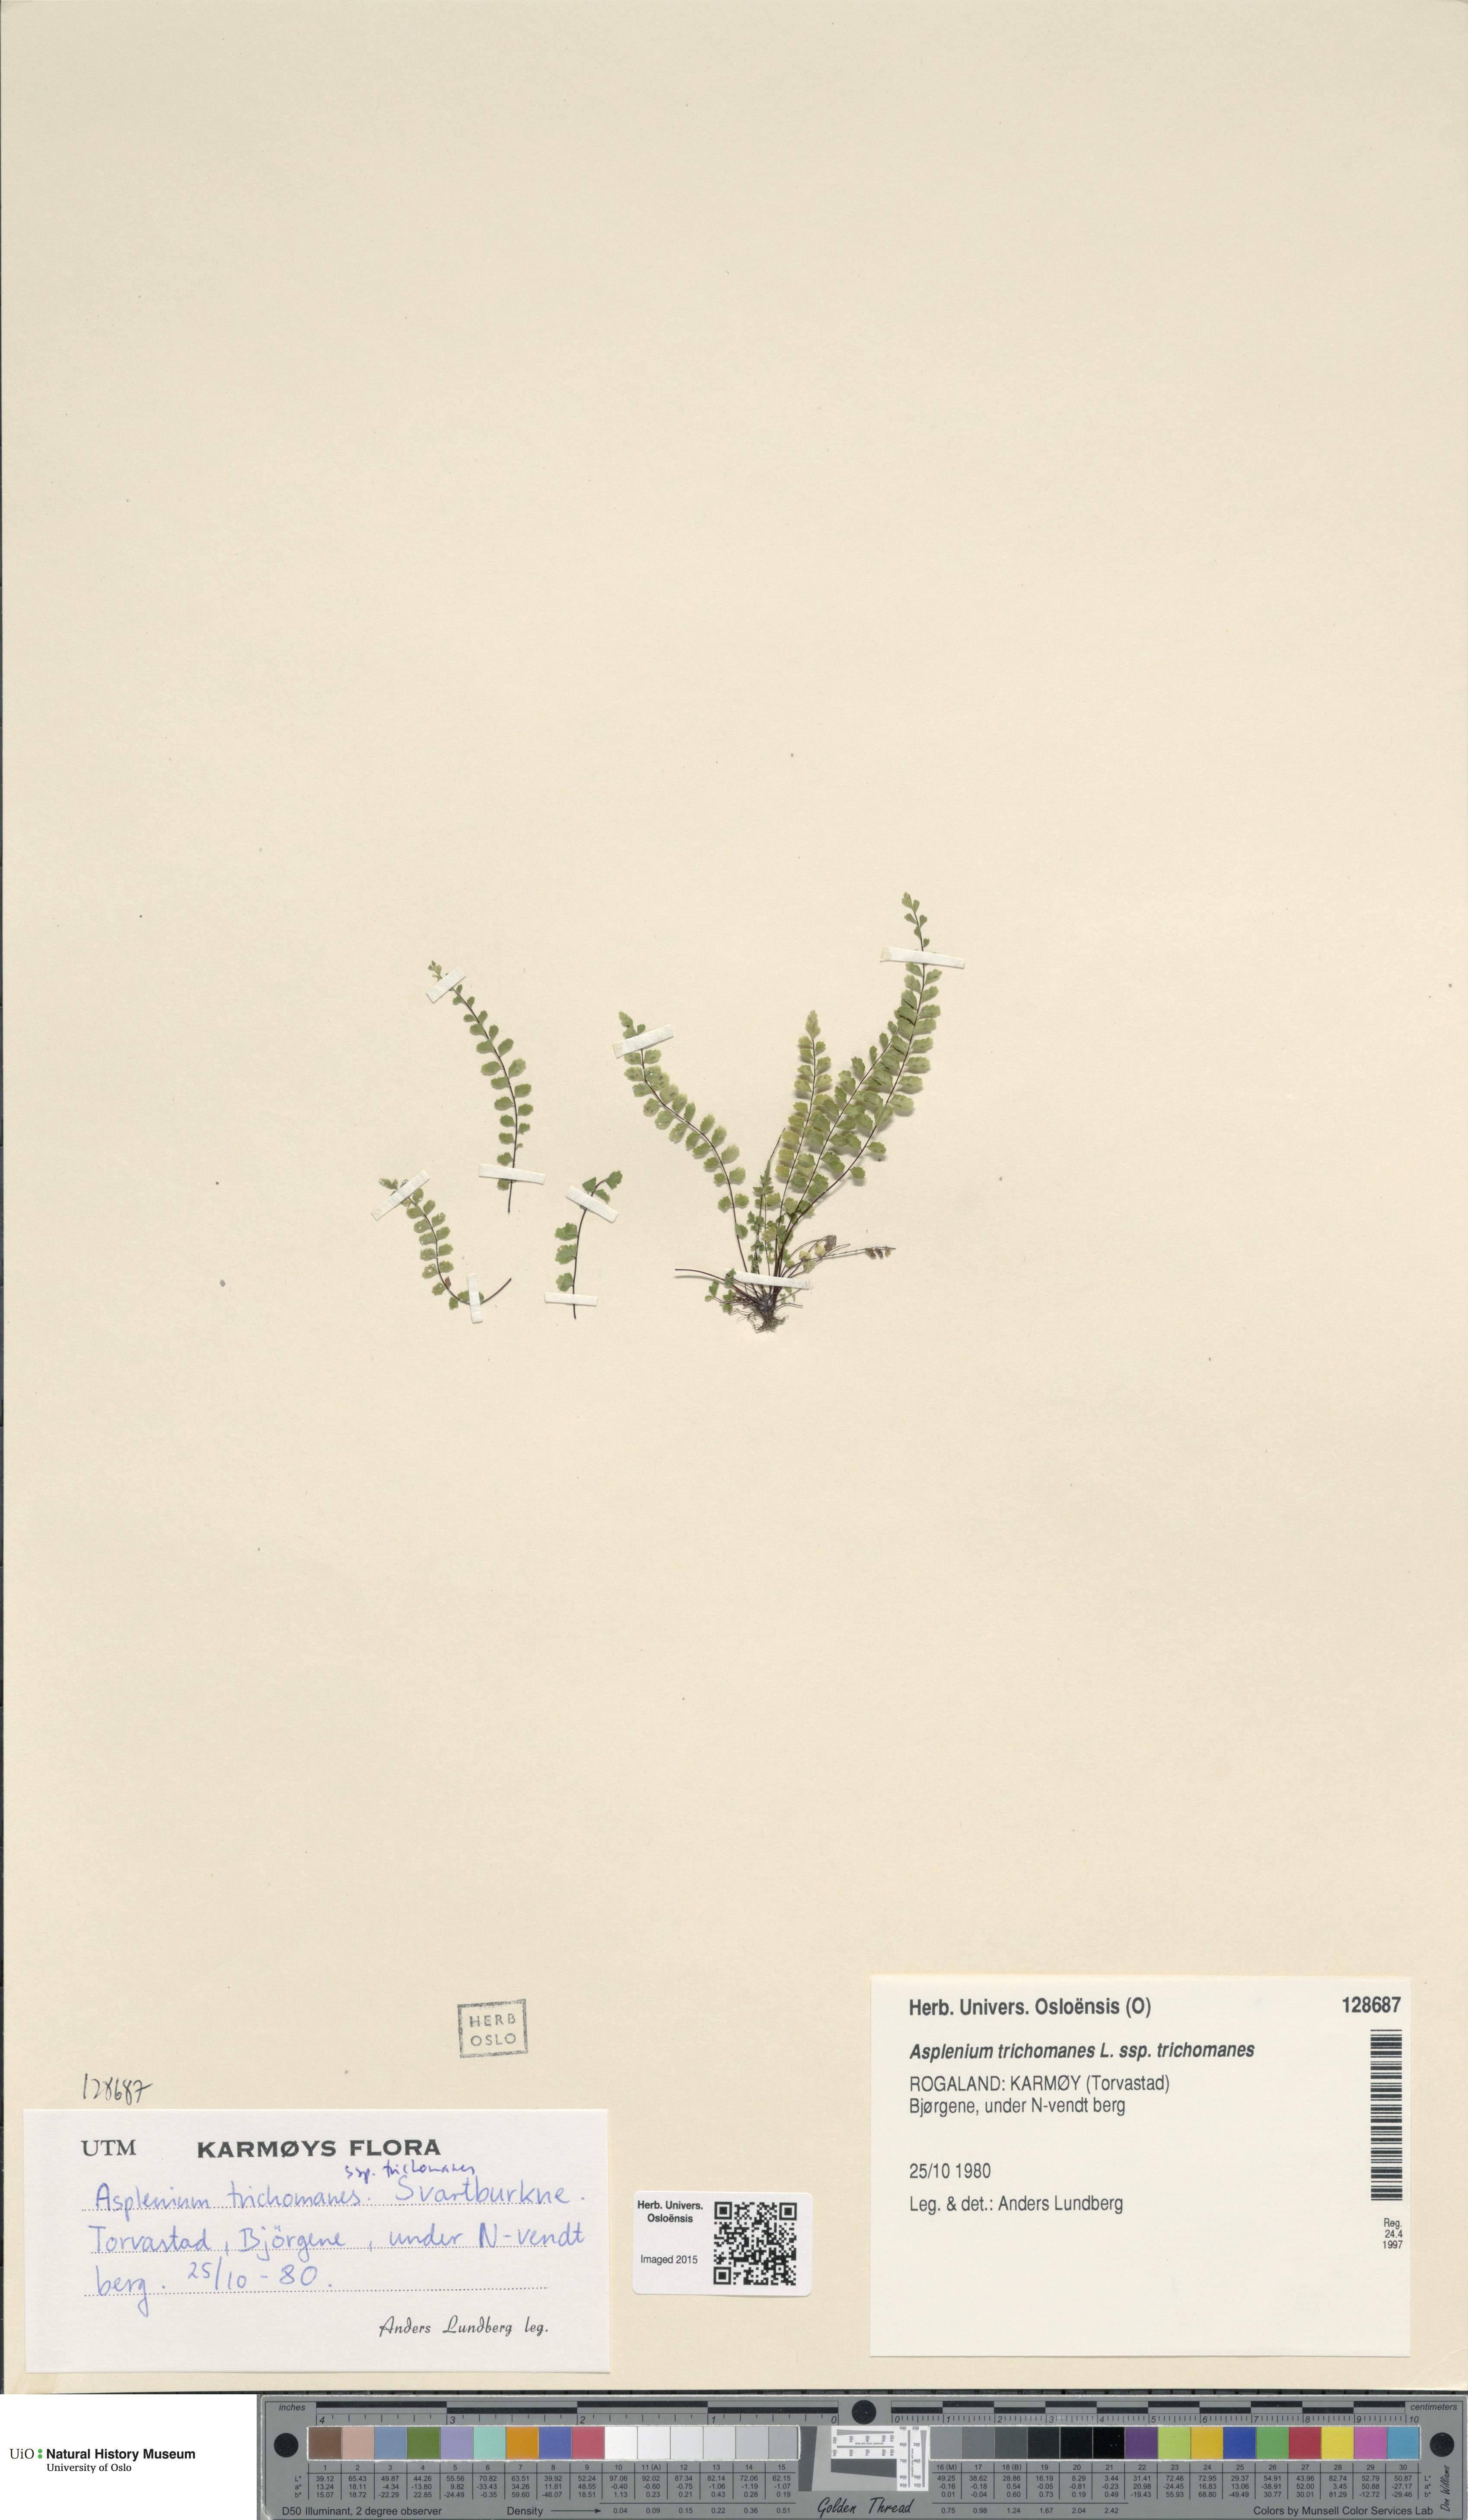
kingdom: Plantae
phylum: Tracheophyta
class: Polypodiopsida
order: Polypodiales
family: Aspleniaceae
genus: Asplenium
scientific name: Asplenium trichomanes
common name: Maidenhair spleenwort
